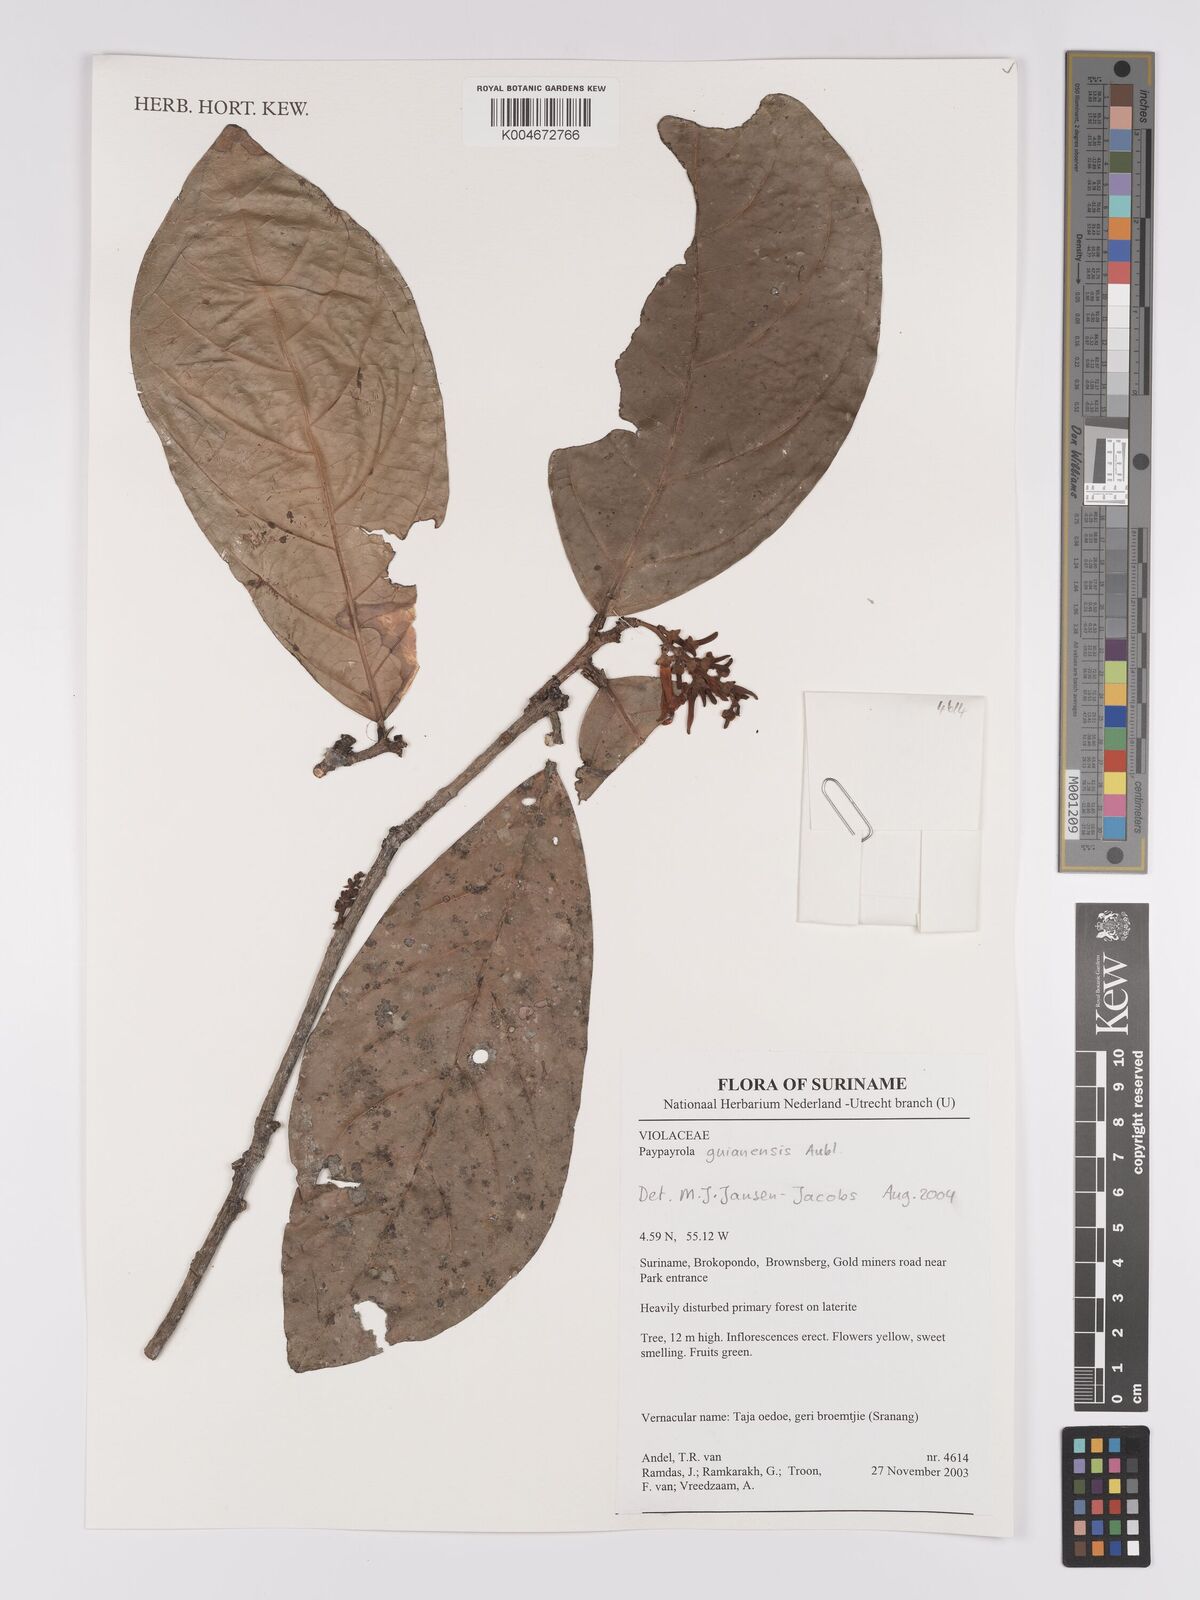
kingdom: Plantae
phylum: Tracheophyta
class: Magnoliopsida
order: Malpighiales
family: Violaceae
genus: Paypayrola
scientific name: Paypayrola guianensis
